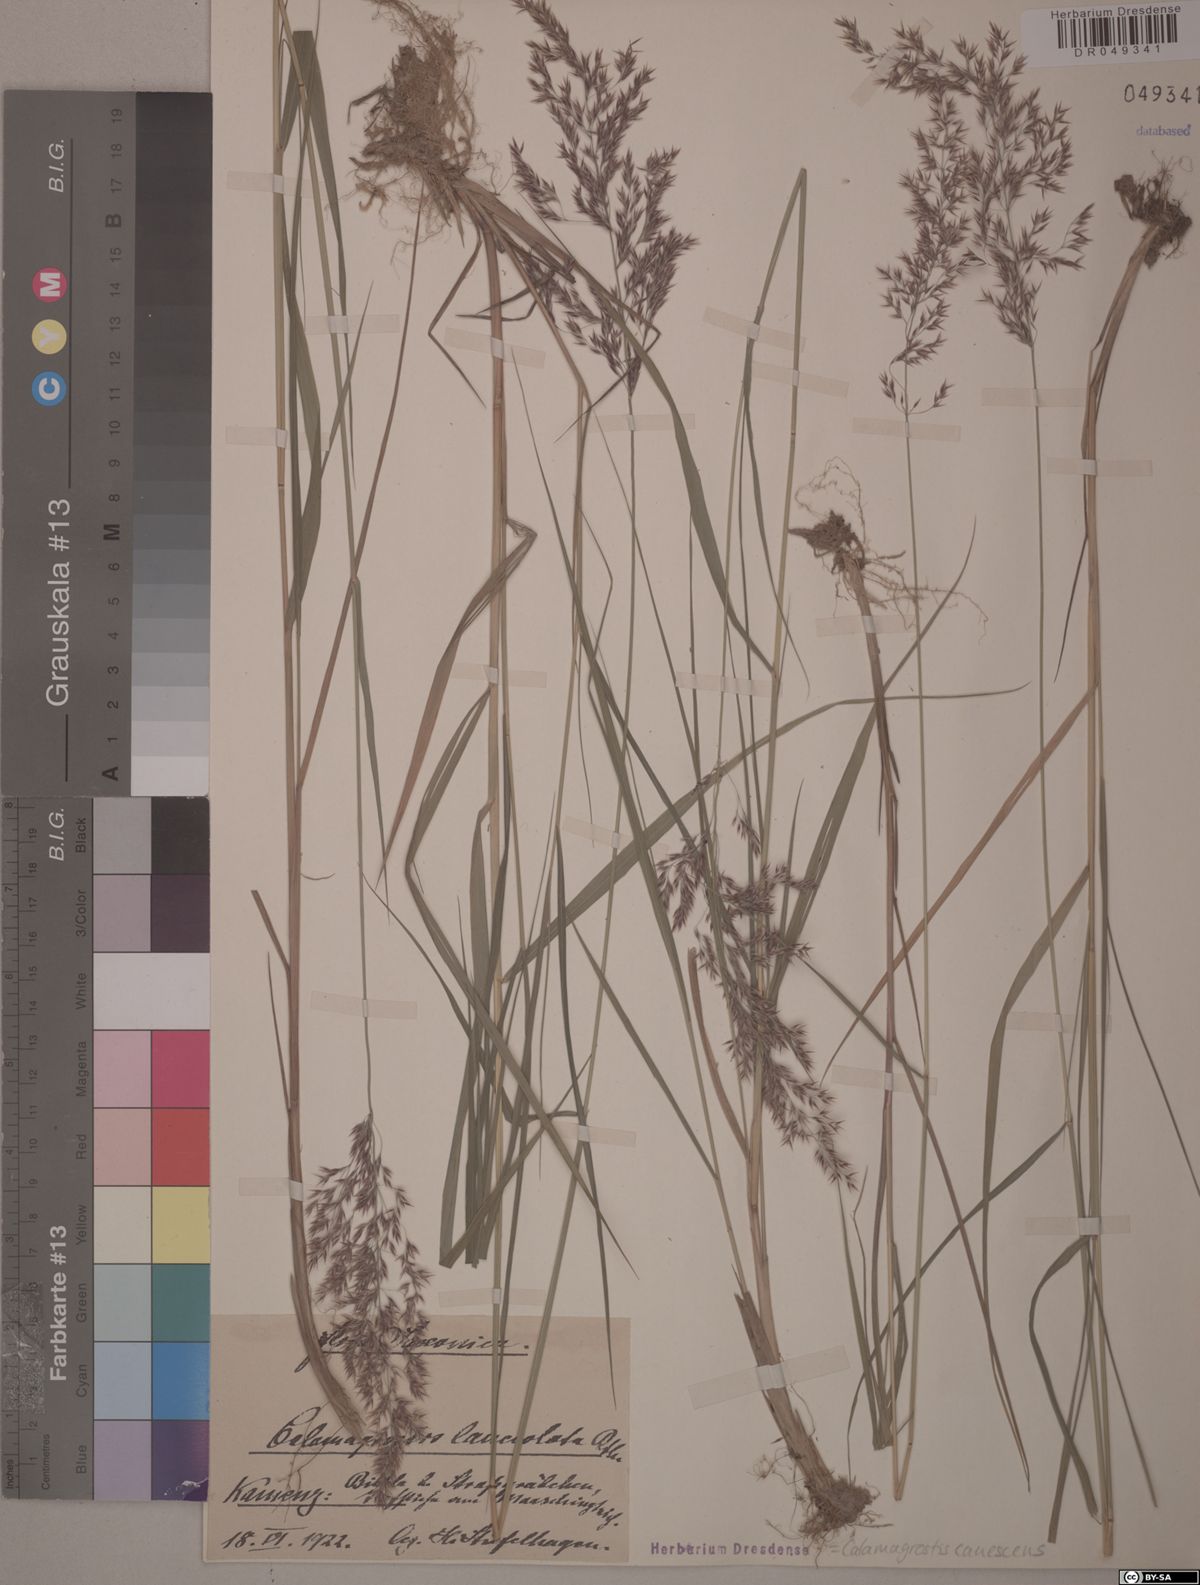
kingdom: Plantae
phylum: Tracheophyta
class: Liliopsida
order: Poales
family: Poaceae
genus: Calamagrostis
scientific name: Calamagrostis canescens
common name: Purple small-reed
